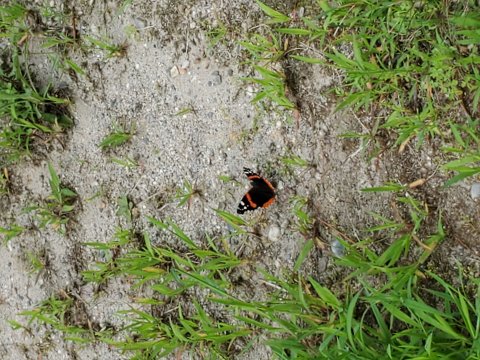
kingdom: Animalia
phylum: Arthropoda
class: Insecta
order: Lepidoptera
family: Nymphalidae
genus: Vanessa
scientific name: Vanessa atalanta
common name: Red Admiral
